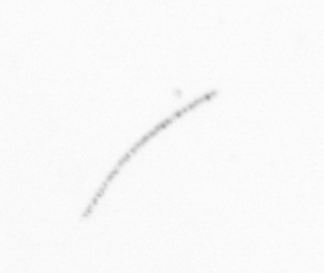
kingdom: Chromista
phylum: Ochrophyta
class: Bacillariophyceae
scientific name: Bacillariophyceae
